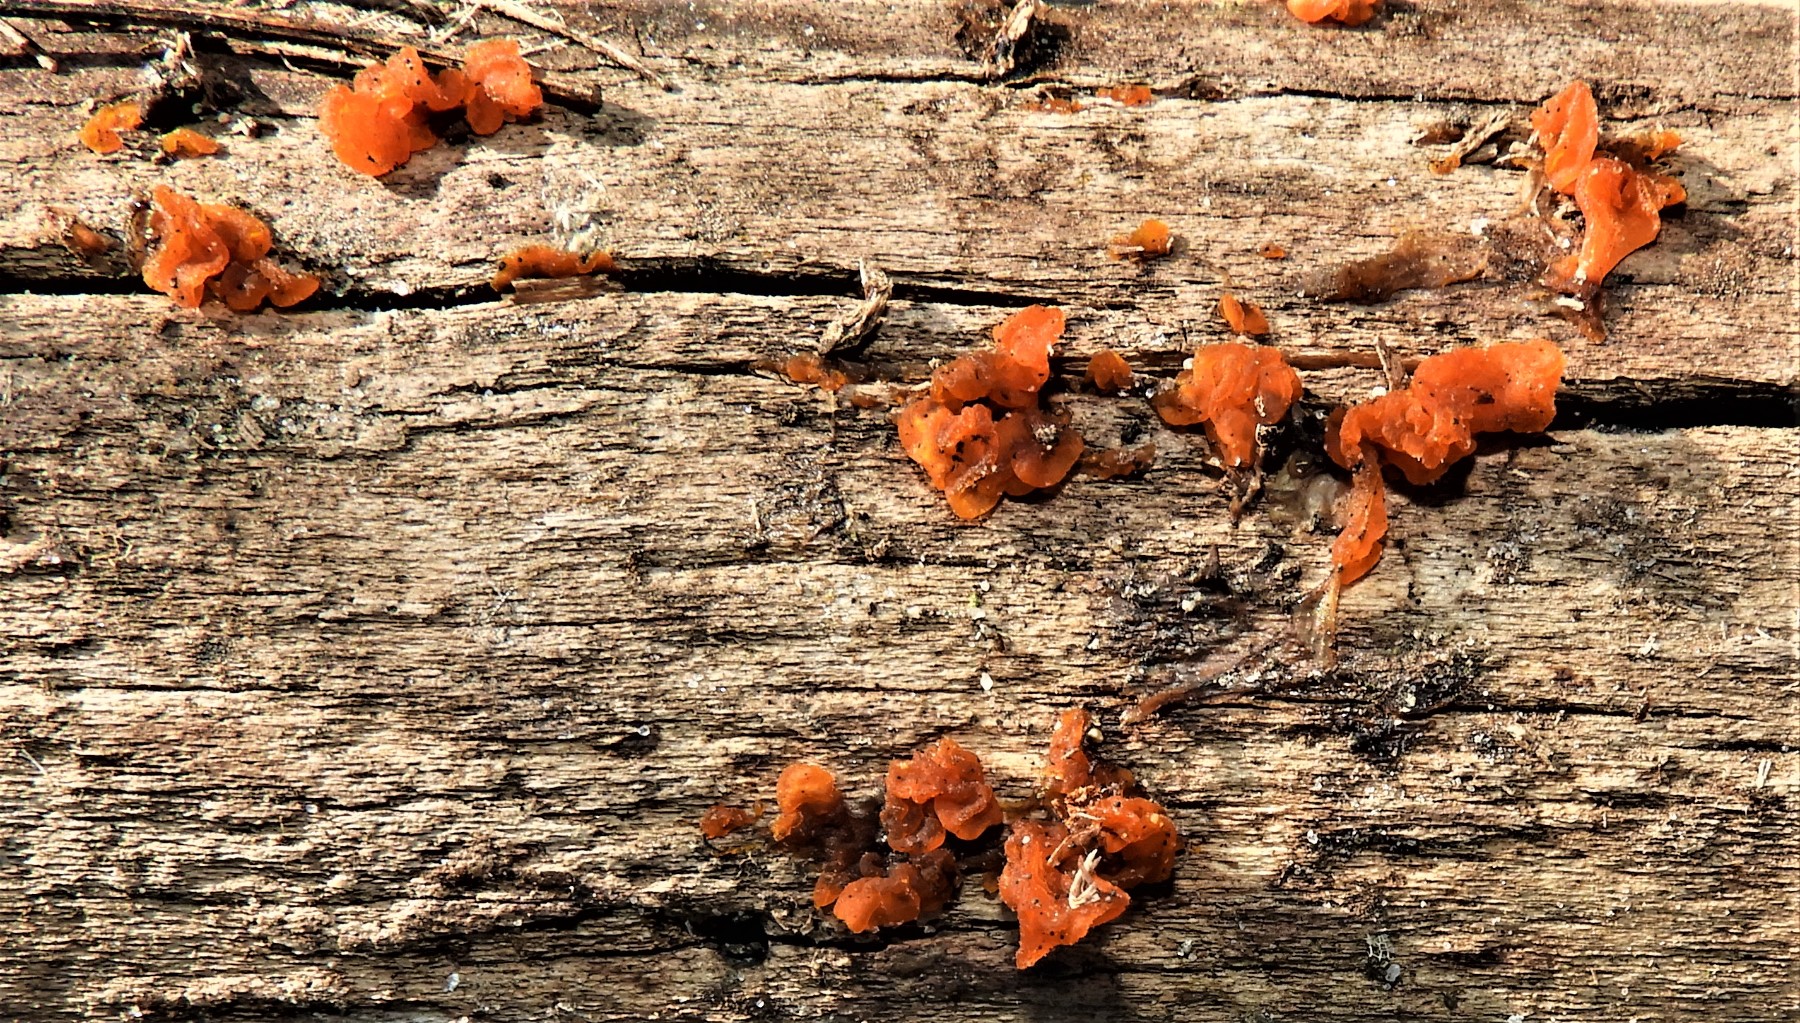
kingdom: Fungi
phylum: Basidiomycota
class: Tremellomycetes
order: Tremellales
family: Tremellaceae
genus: Tremella
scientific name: Tremella mesenterica
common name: gul bævresvamp
